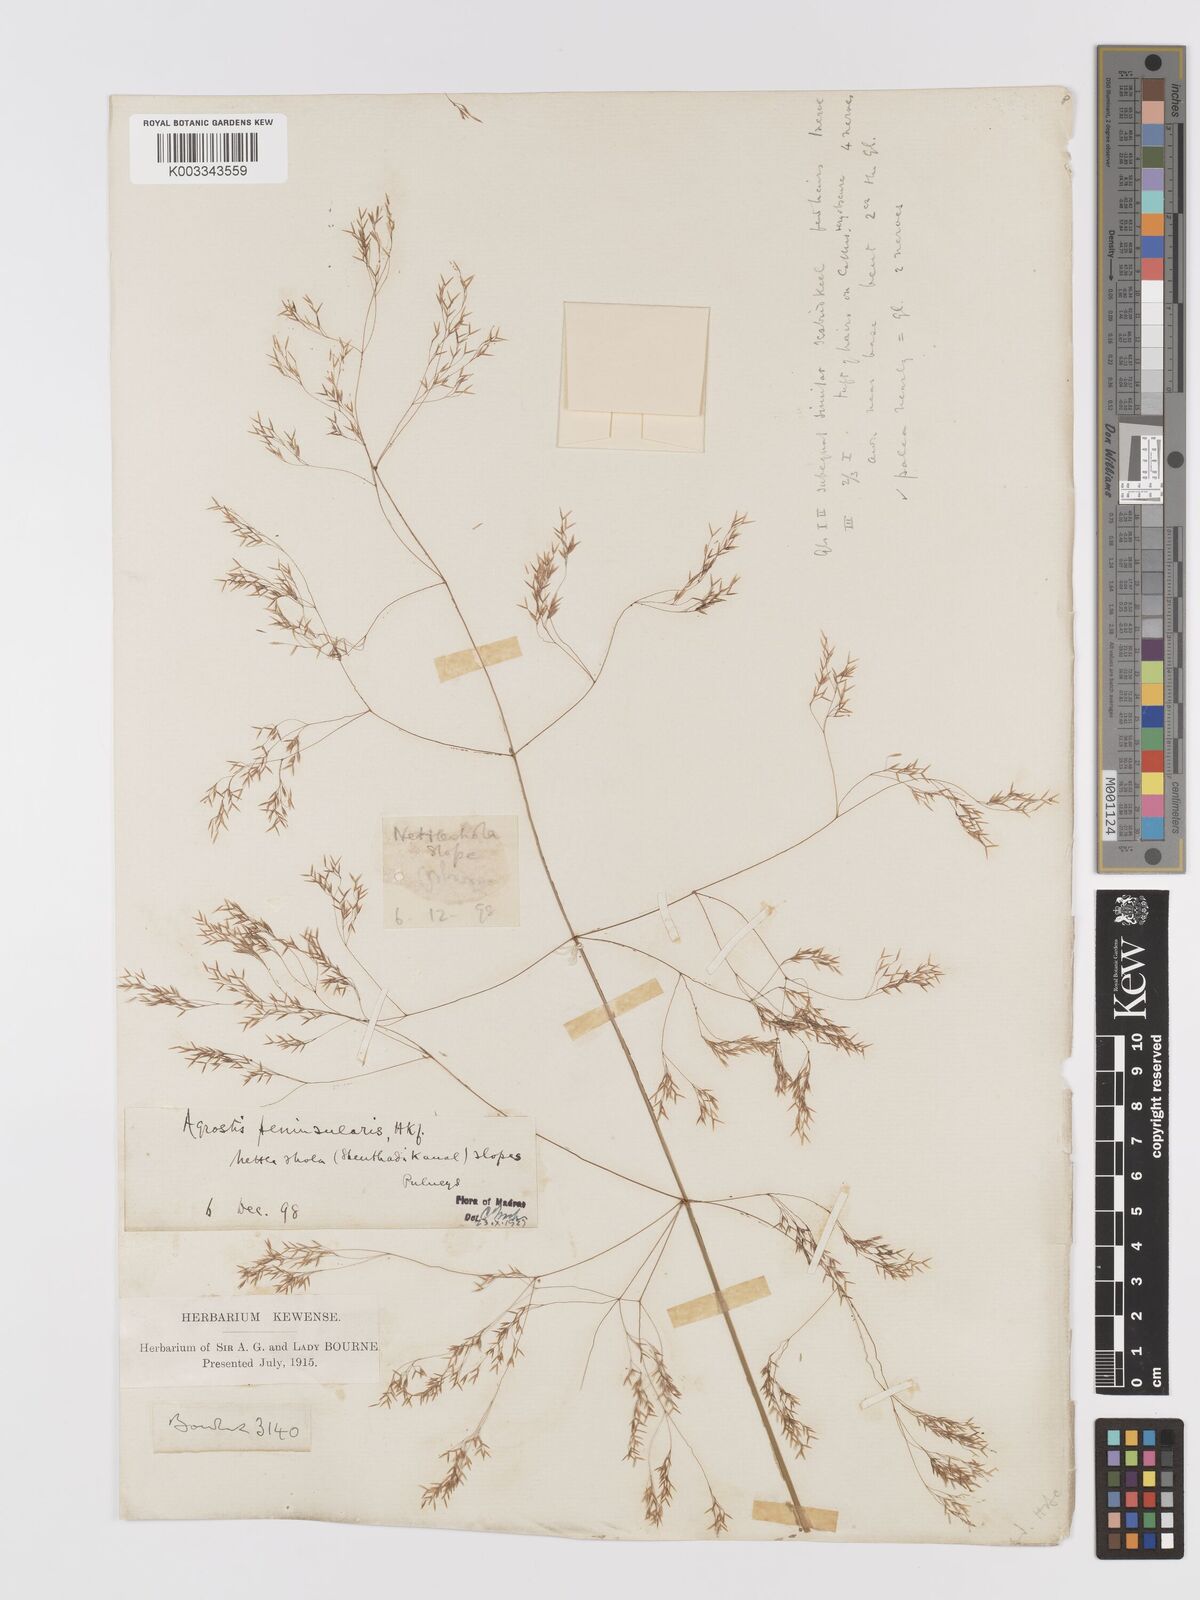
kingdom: Plantae
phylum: Tracheophyta
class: Liliopsida
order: Poales
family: Poaceae
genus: Agrostis
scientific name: Agrostis peninsularis
